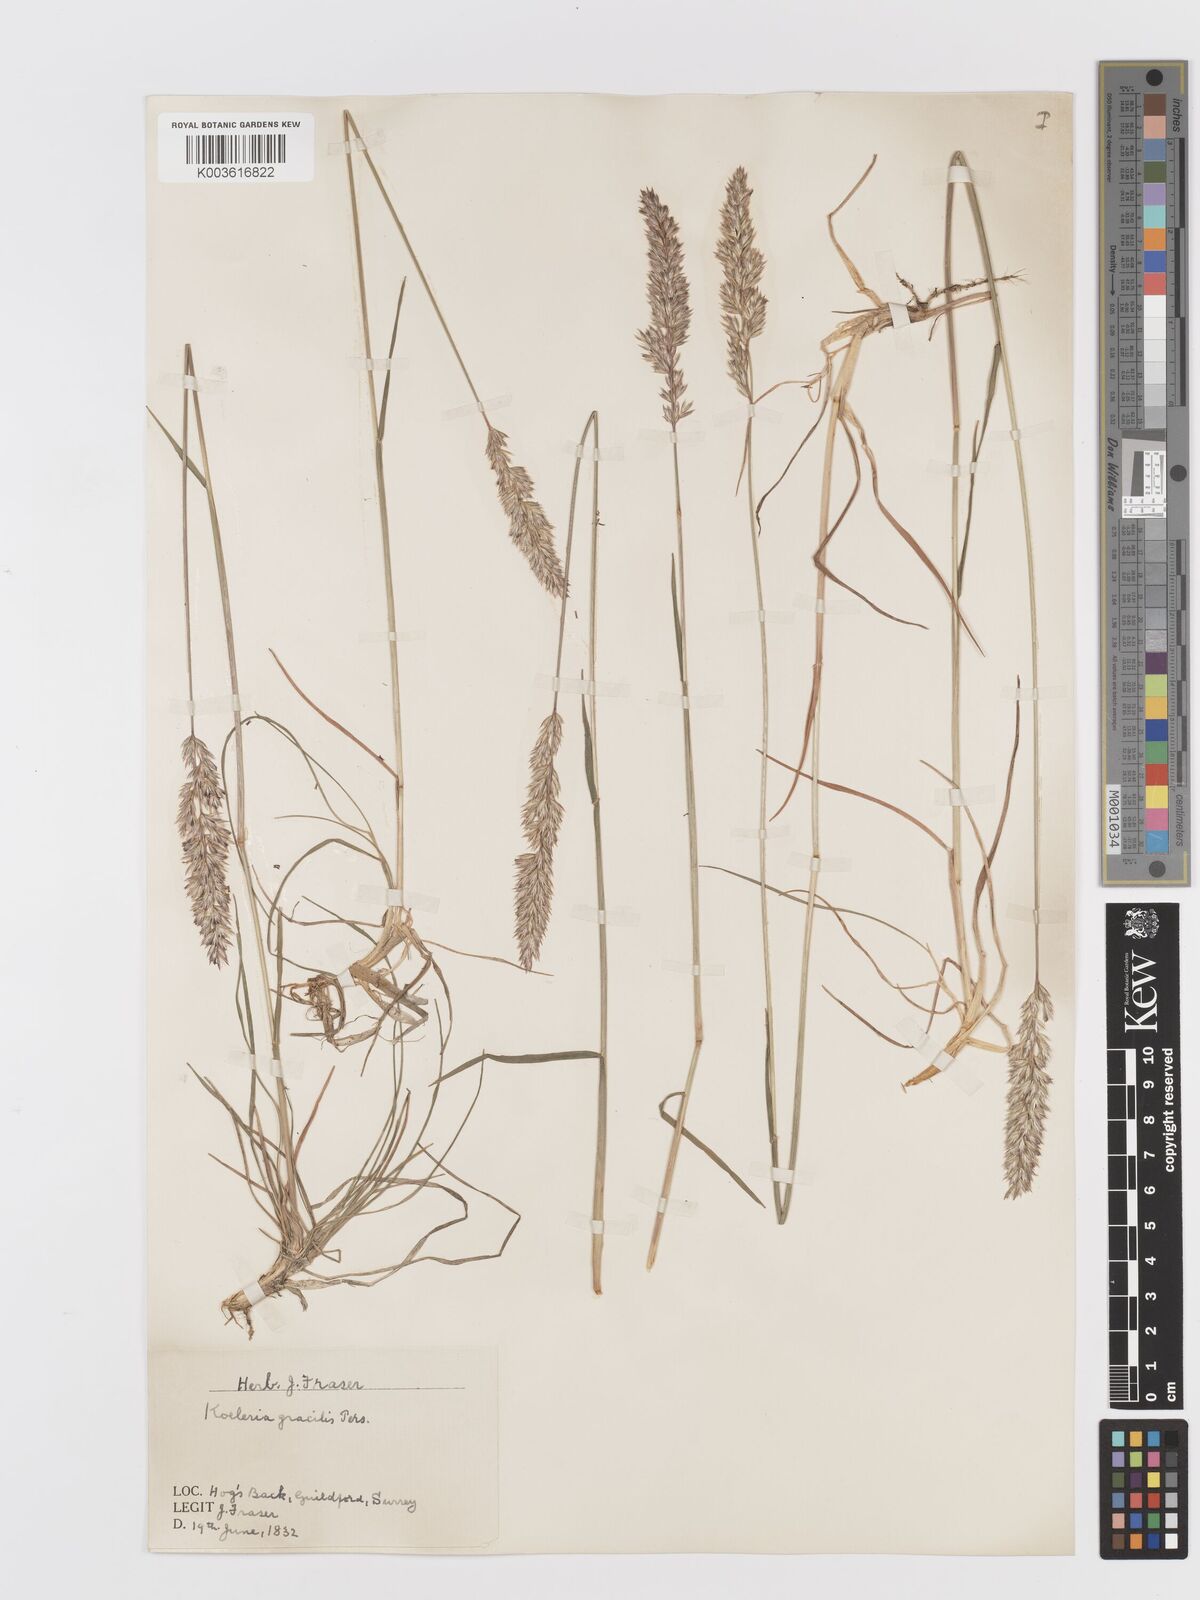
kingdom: Plantae
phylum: Tracheophyta
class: Liliopsida
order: Poales
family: Poaceae
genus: Koeleria
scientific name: Koeleria macrantha
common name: Crested hair-grass
